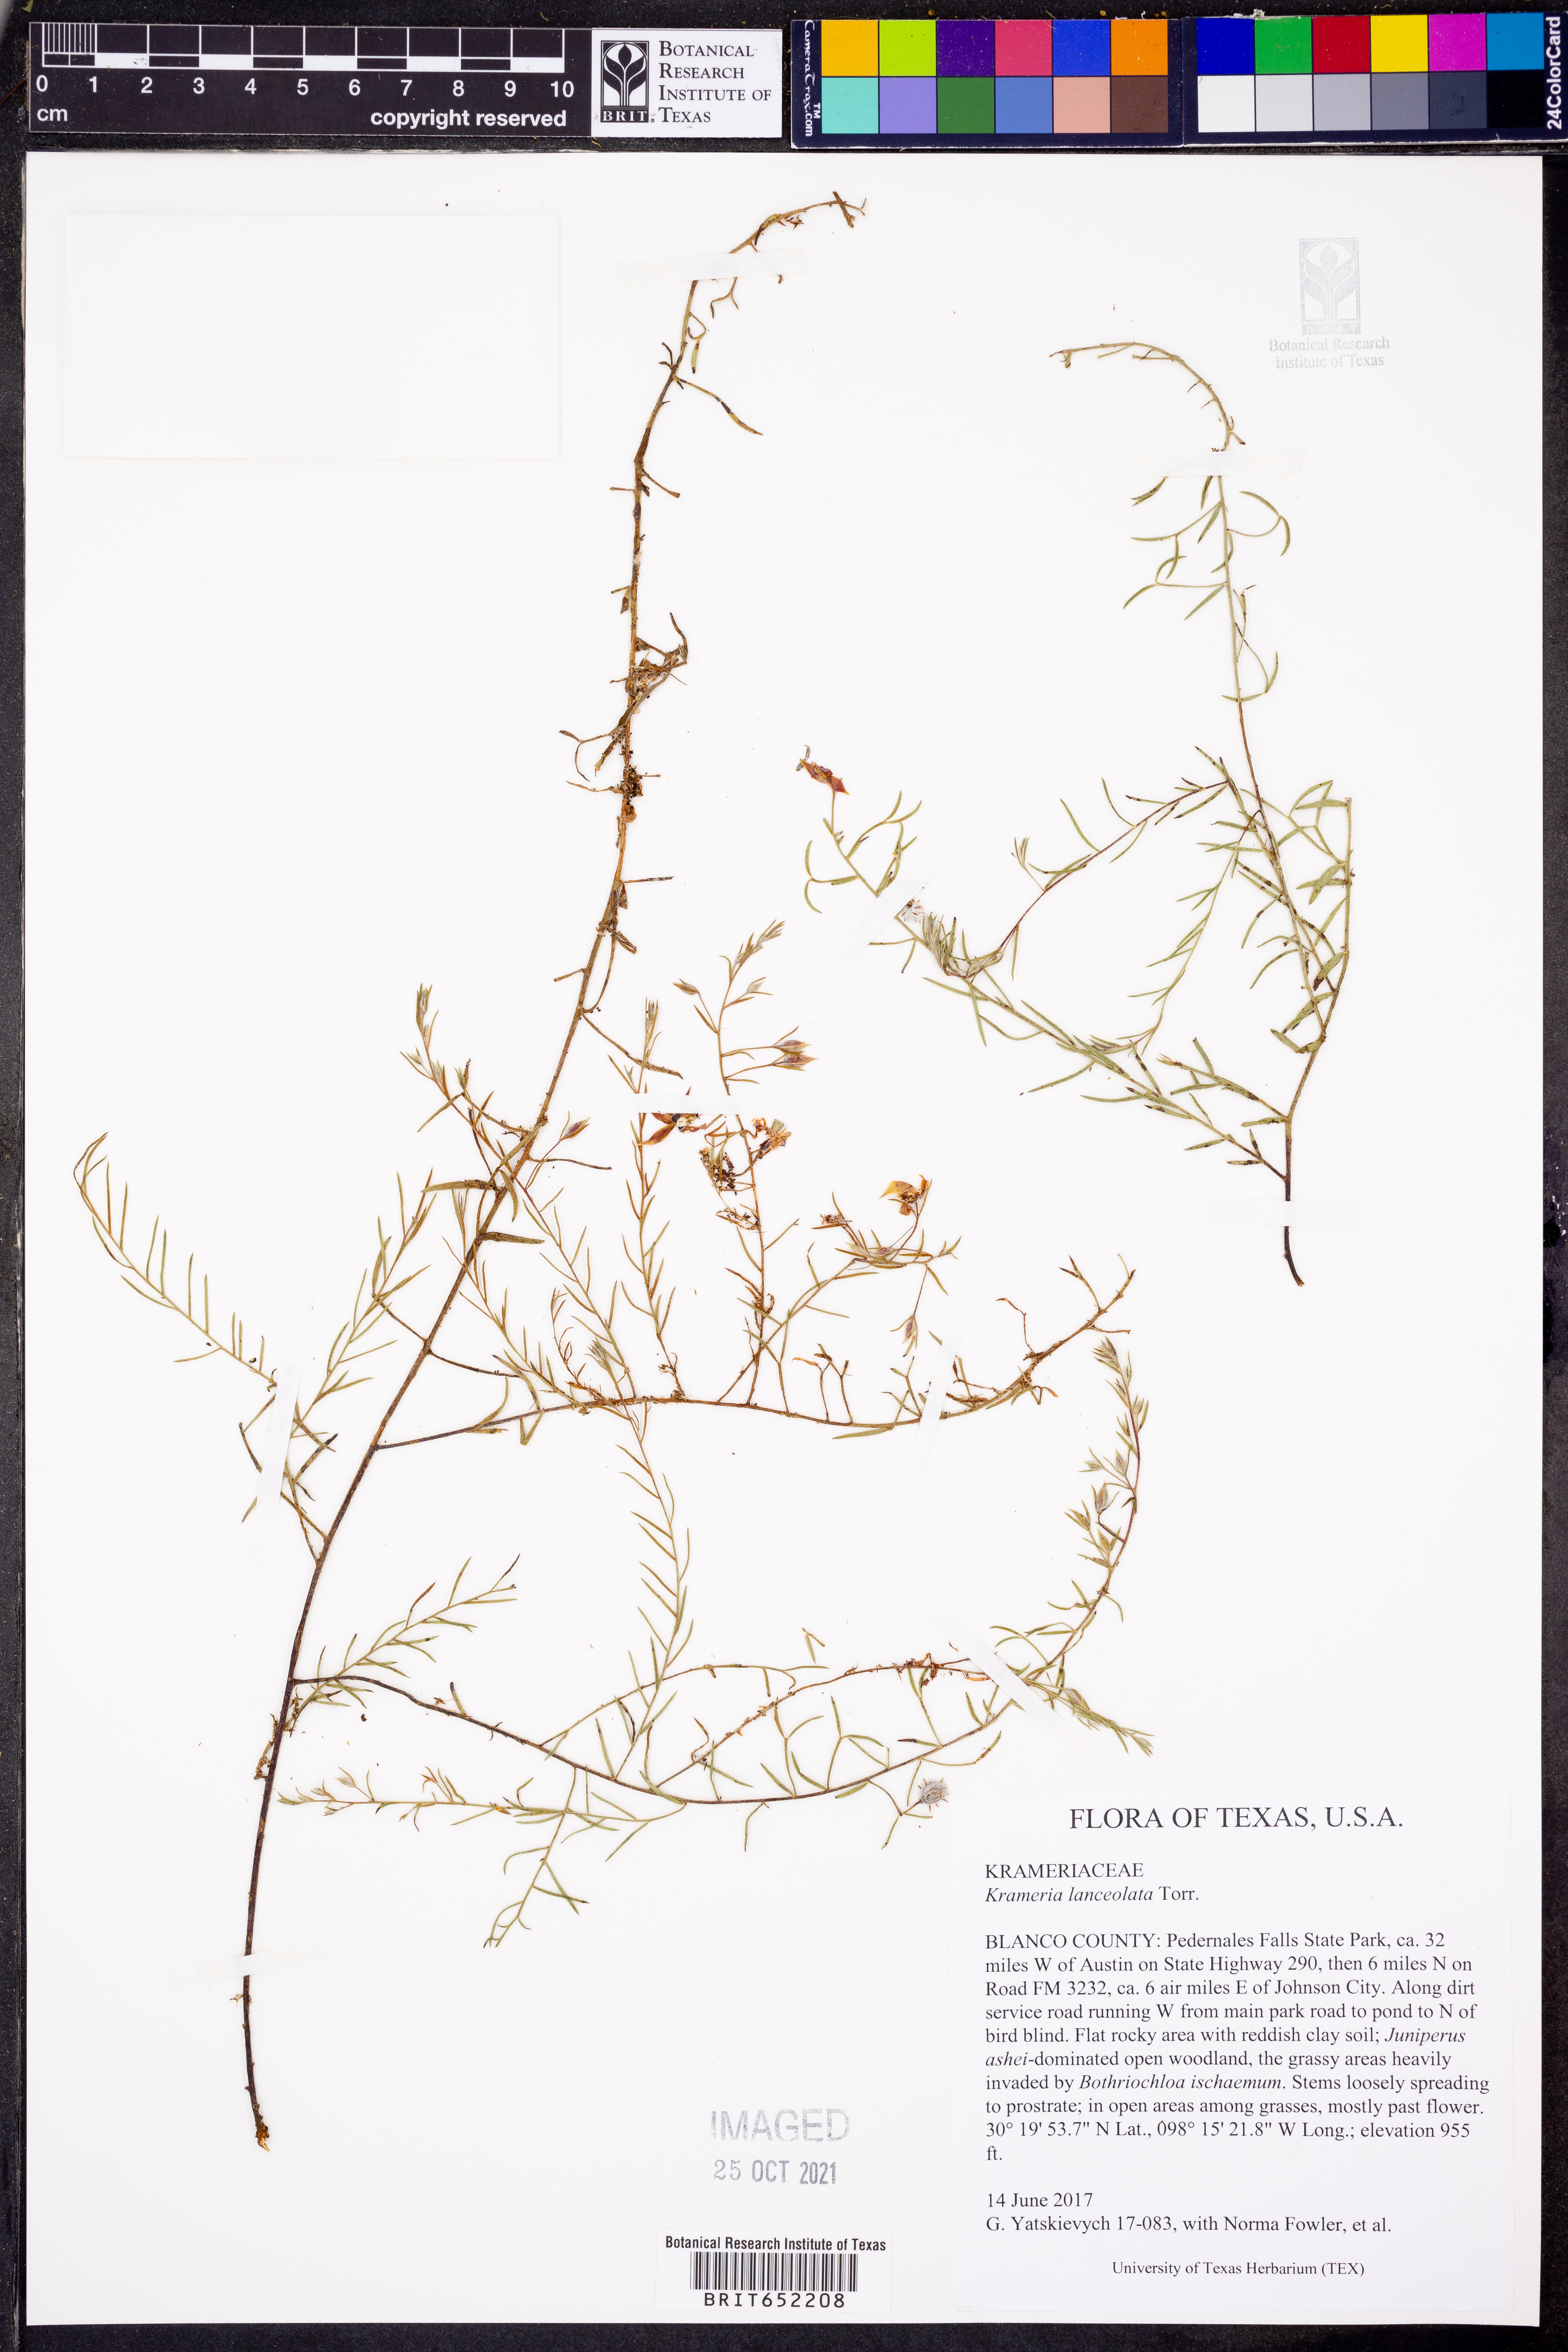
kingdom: Plantae
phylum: Tracheophyta
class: Magnoliopsida
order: Zygophyllales
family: Krameriaceae
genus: Krameria
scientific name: Krameria lanceolata
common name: Ratany
